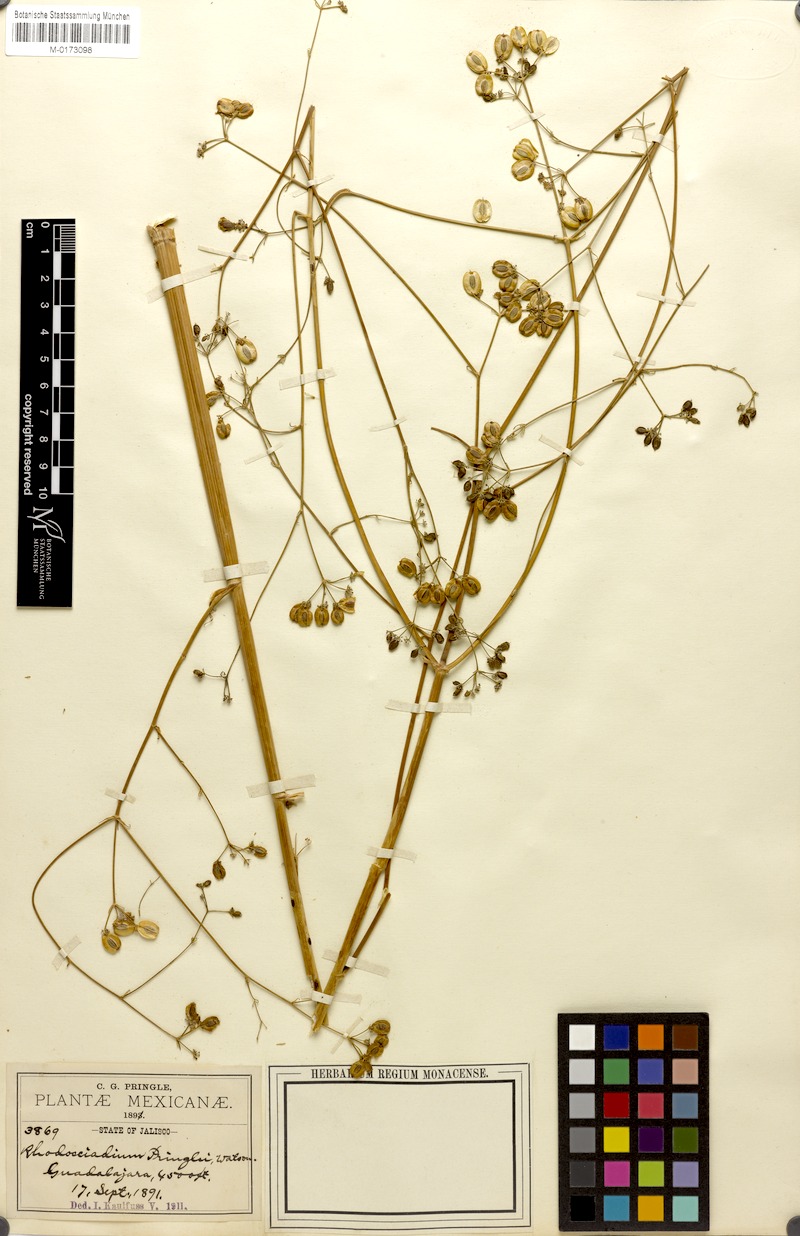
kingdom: Plantae
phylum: Tracheophyta
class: Magnoliopsida
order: Apiales
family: Apiaceae
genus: Rhodosciadium
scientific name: Rhodosciadium pringlei
